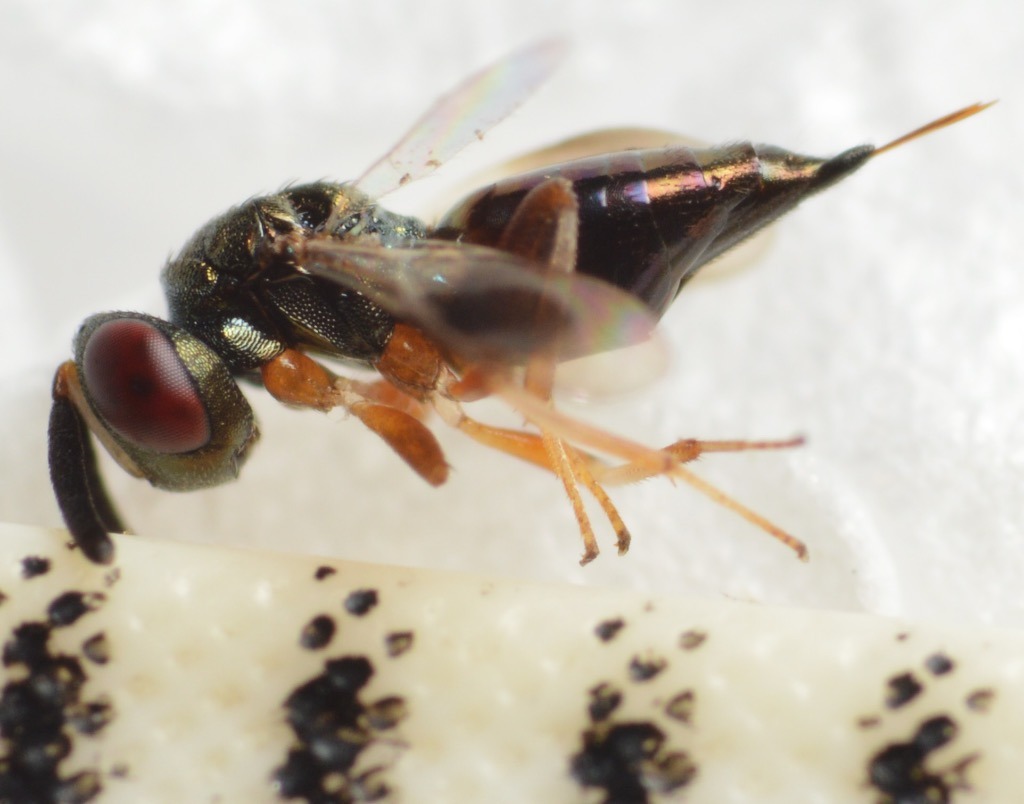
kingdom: Animalia
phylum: Arthropoda
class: Insecta
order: Hymenoptera
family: Pteromalidae
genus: Arthrolytus
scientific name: Arthrolytus ocellus
